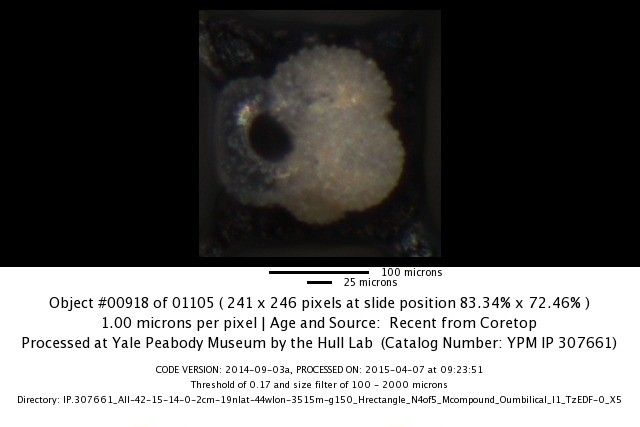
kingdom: Chromista
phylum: Foraminifera
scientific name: Foraminifera
